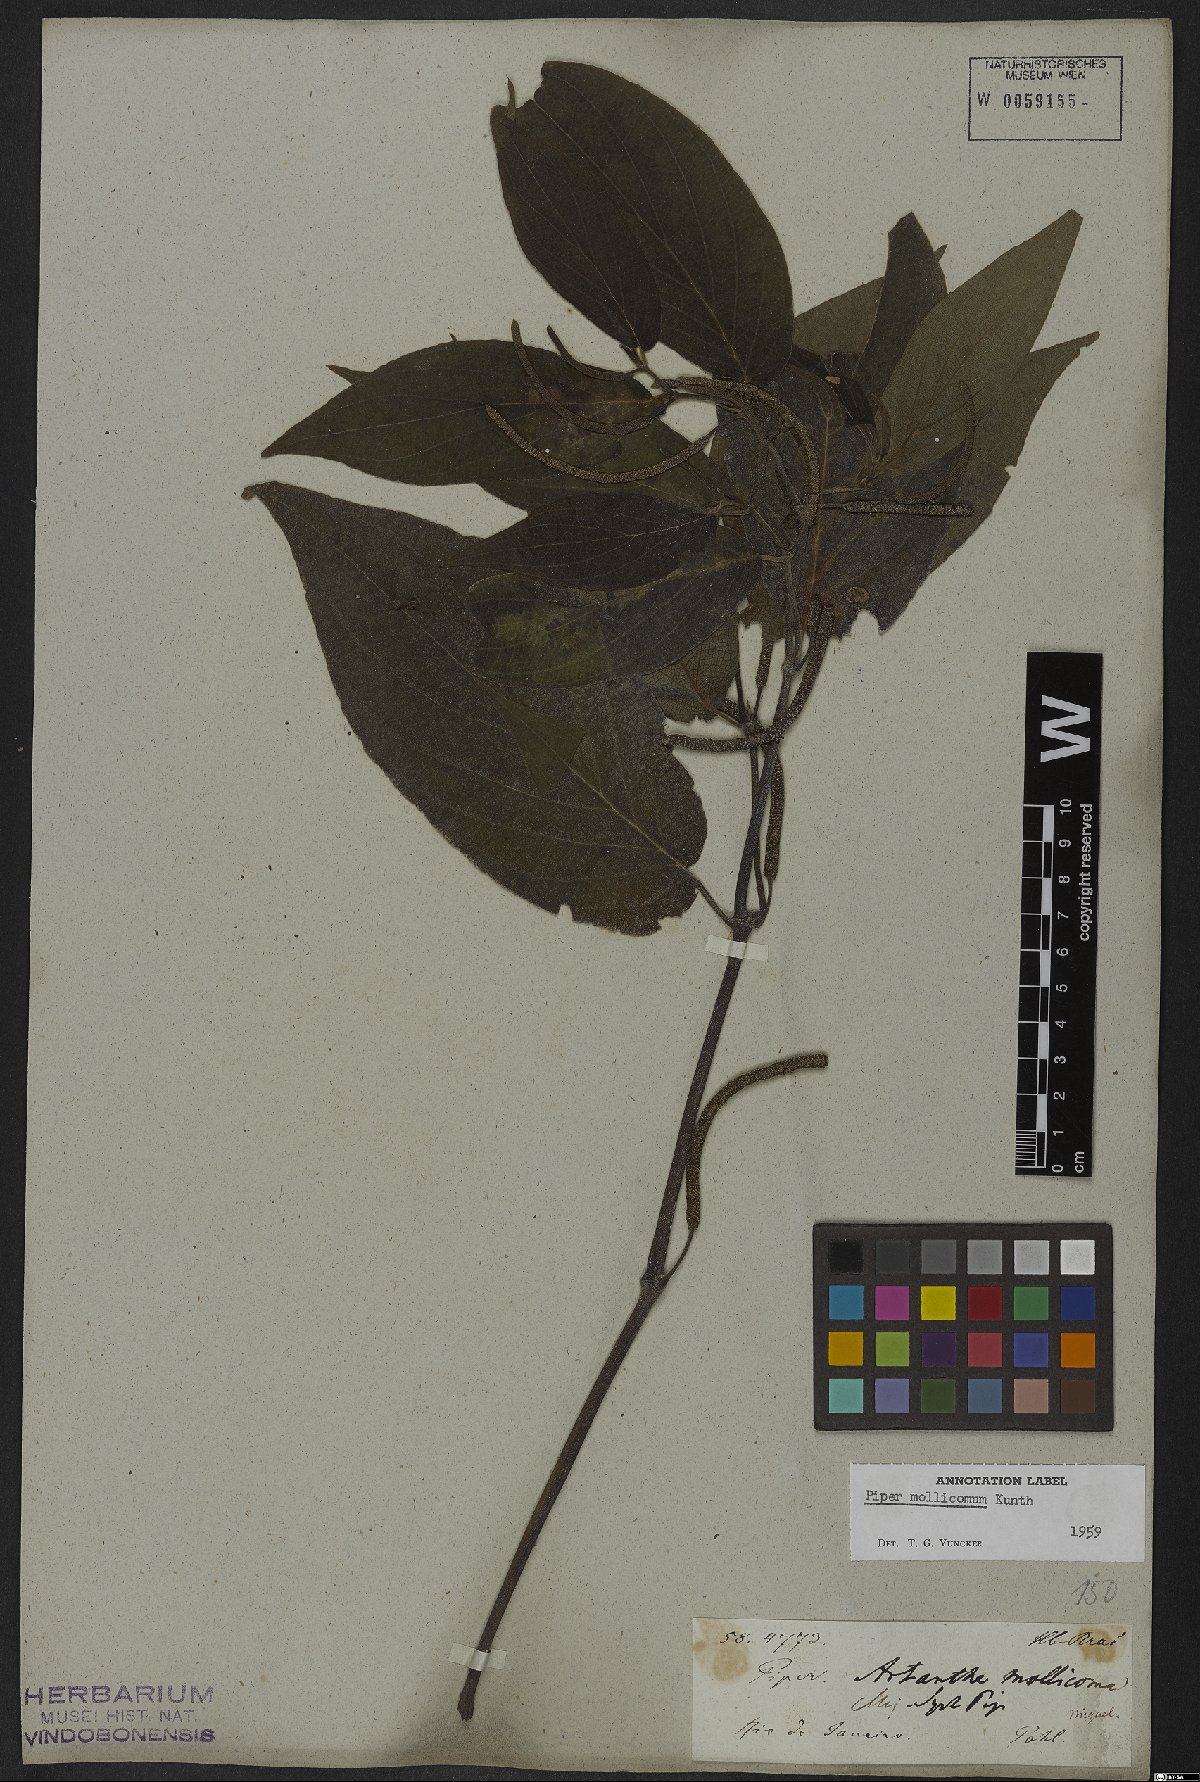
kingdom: Plantae
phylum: Tracheophyta
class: Magnoliopsida
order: Piperales
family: Piperaceae
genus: Piper
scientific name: Piper mollicomum
